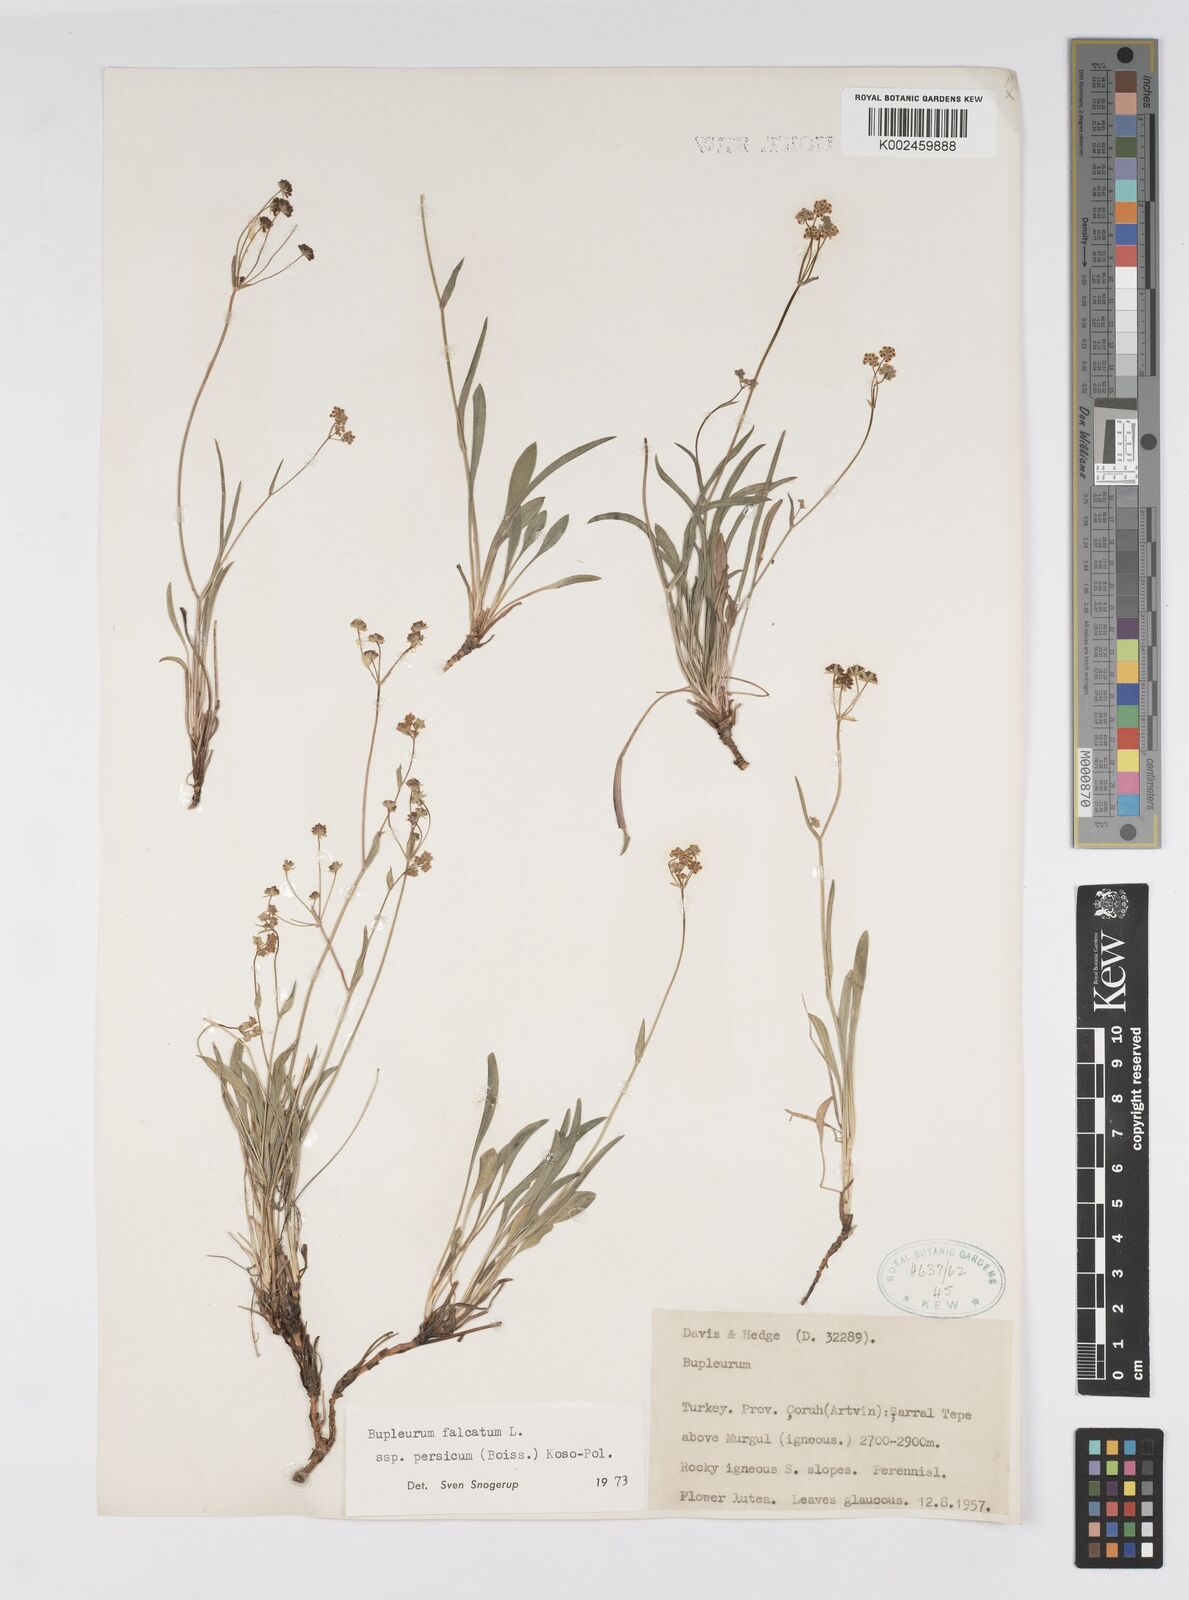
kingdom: Plantae
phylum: Tracheophyta
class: Magnoliopsida
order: Apiales
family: Apiaceae
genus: Bupleurum
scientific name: Bupleurum persicum
